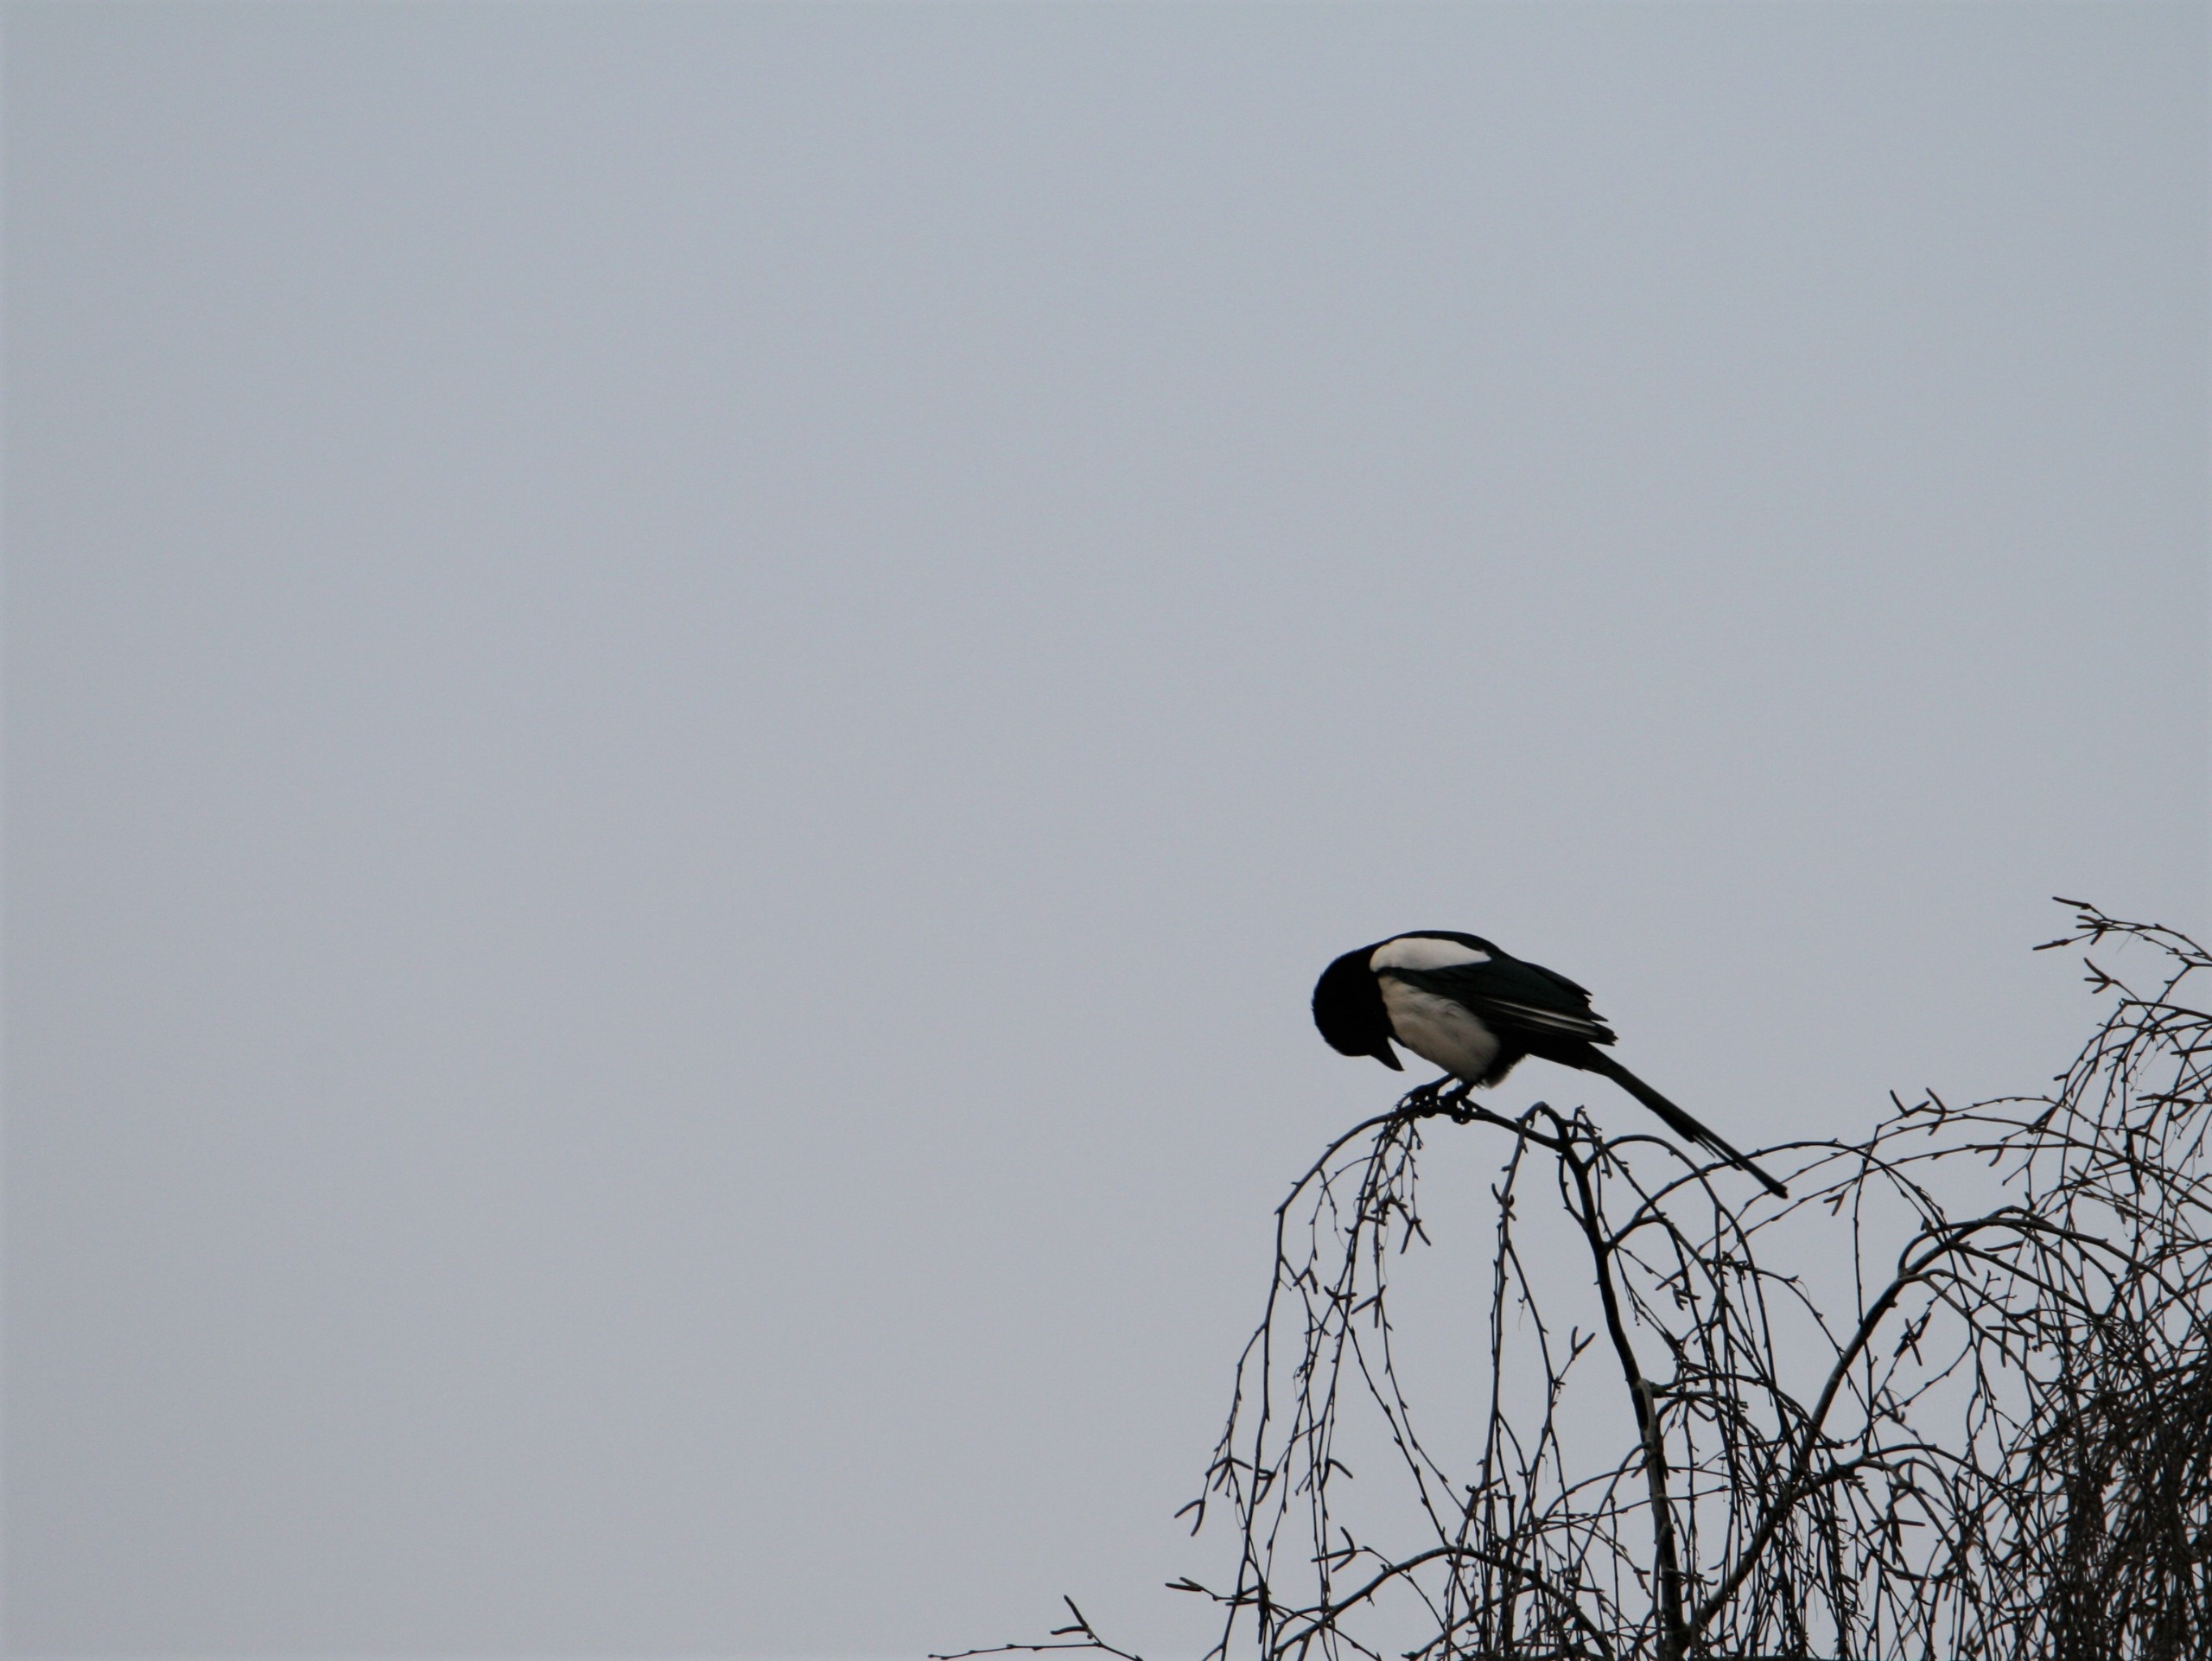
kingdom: Animalia
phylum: Chordata
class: Aves
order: Passeriformes
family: Corvidae
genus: Pica
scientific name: Pica pica
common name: Husskade
